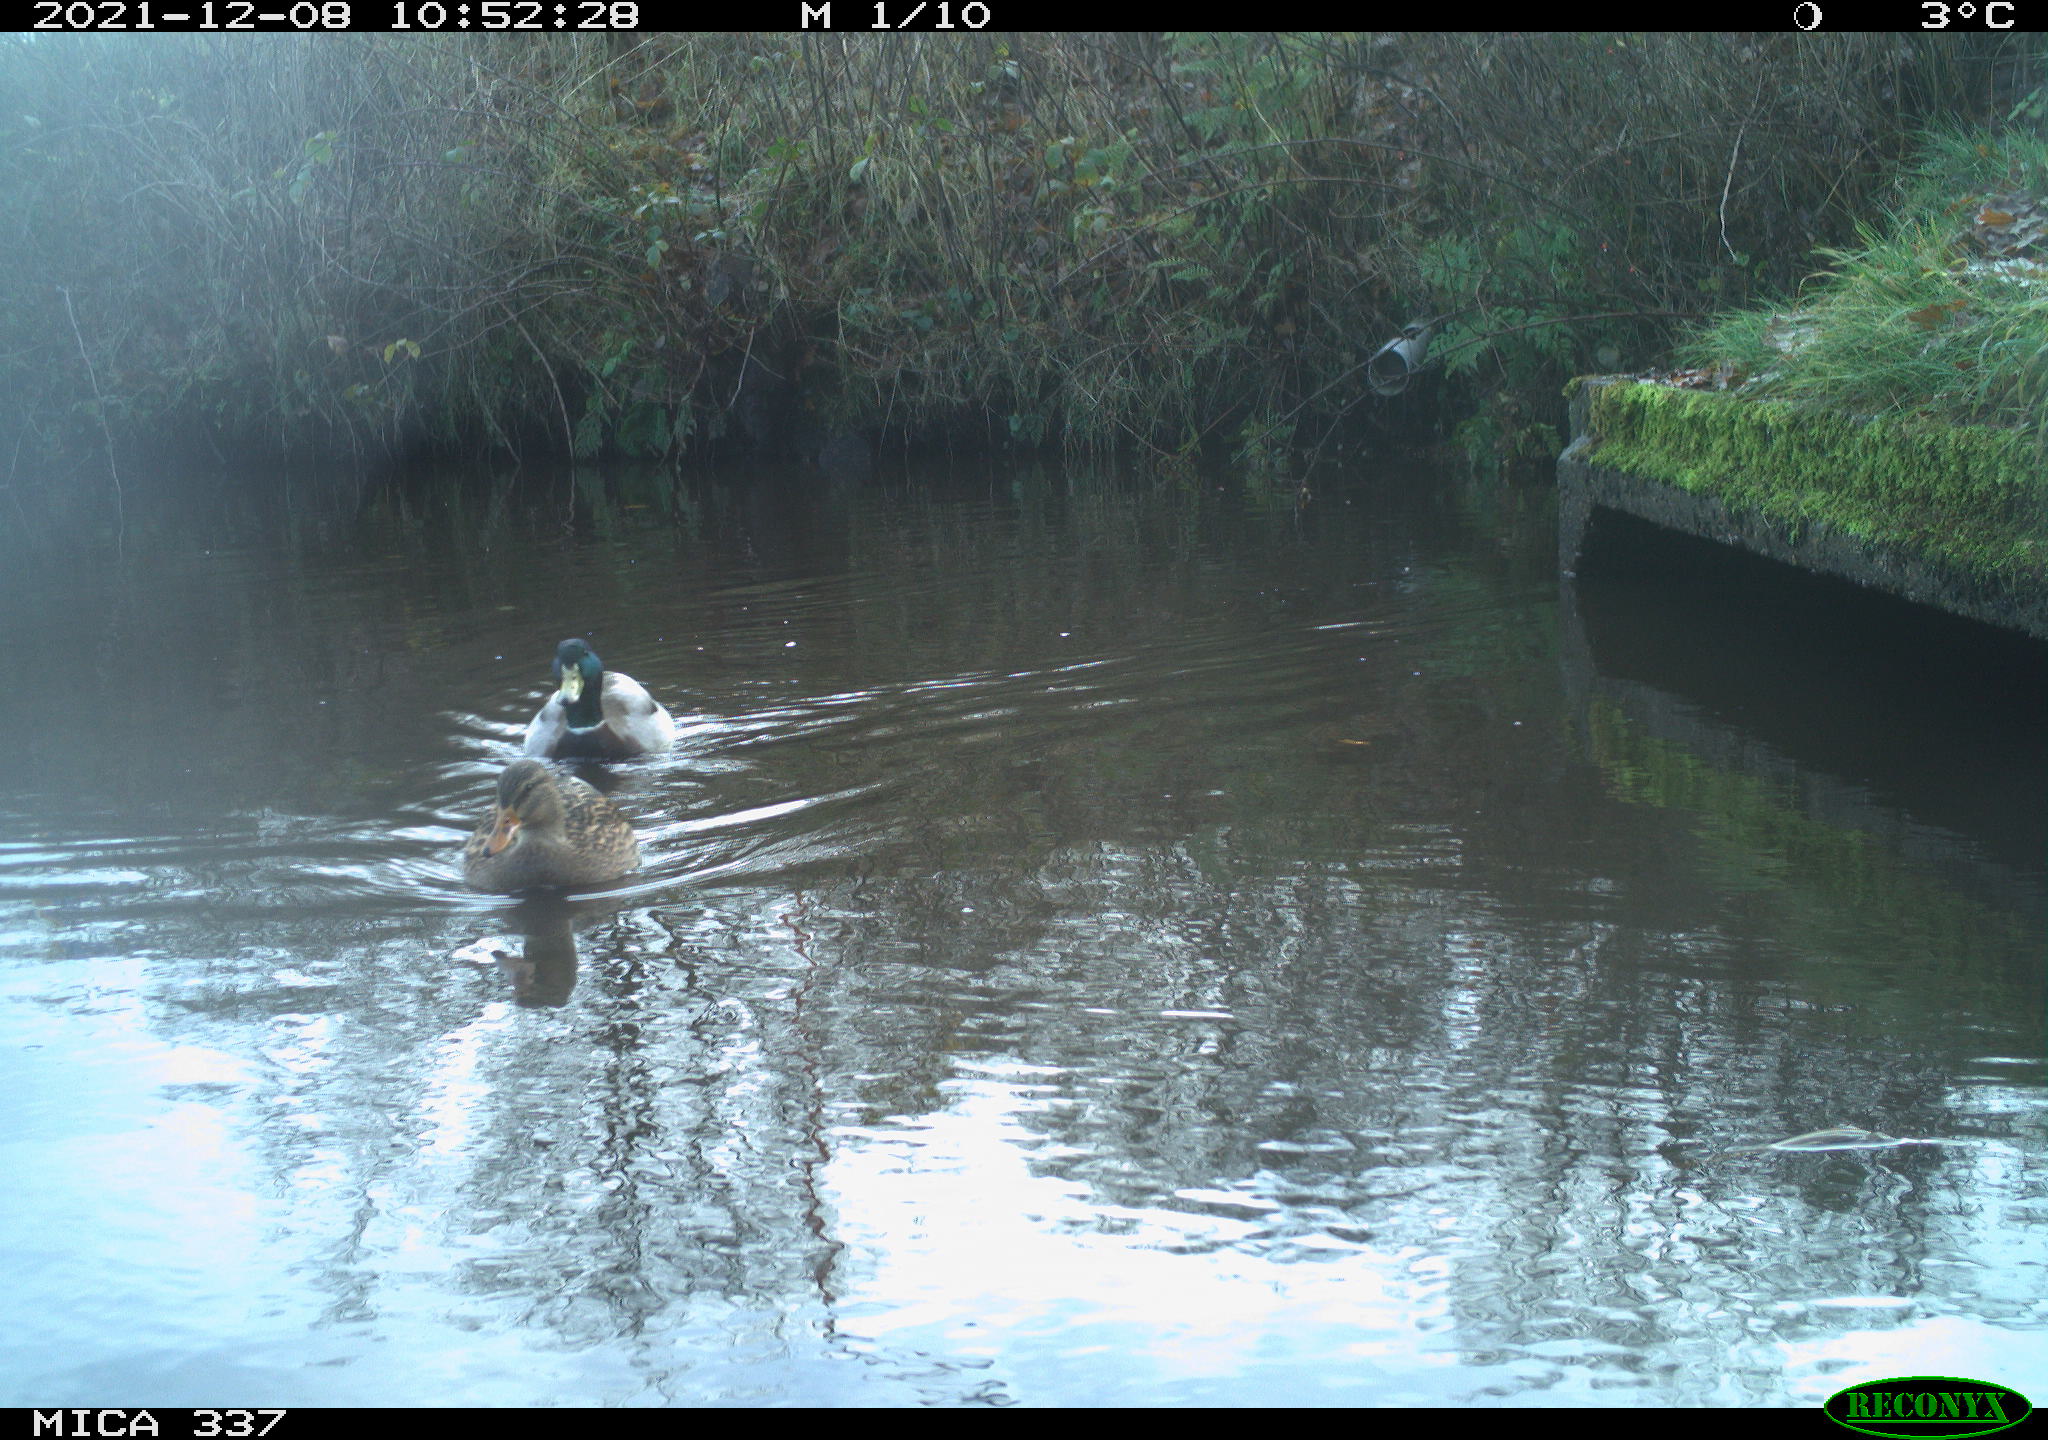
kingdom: Animalia
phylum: Chordata
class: Aves
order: Anseriformes
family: Anatidae
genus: Anas
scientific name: Anas platyrhynchos
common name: Mallard
